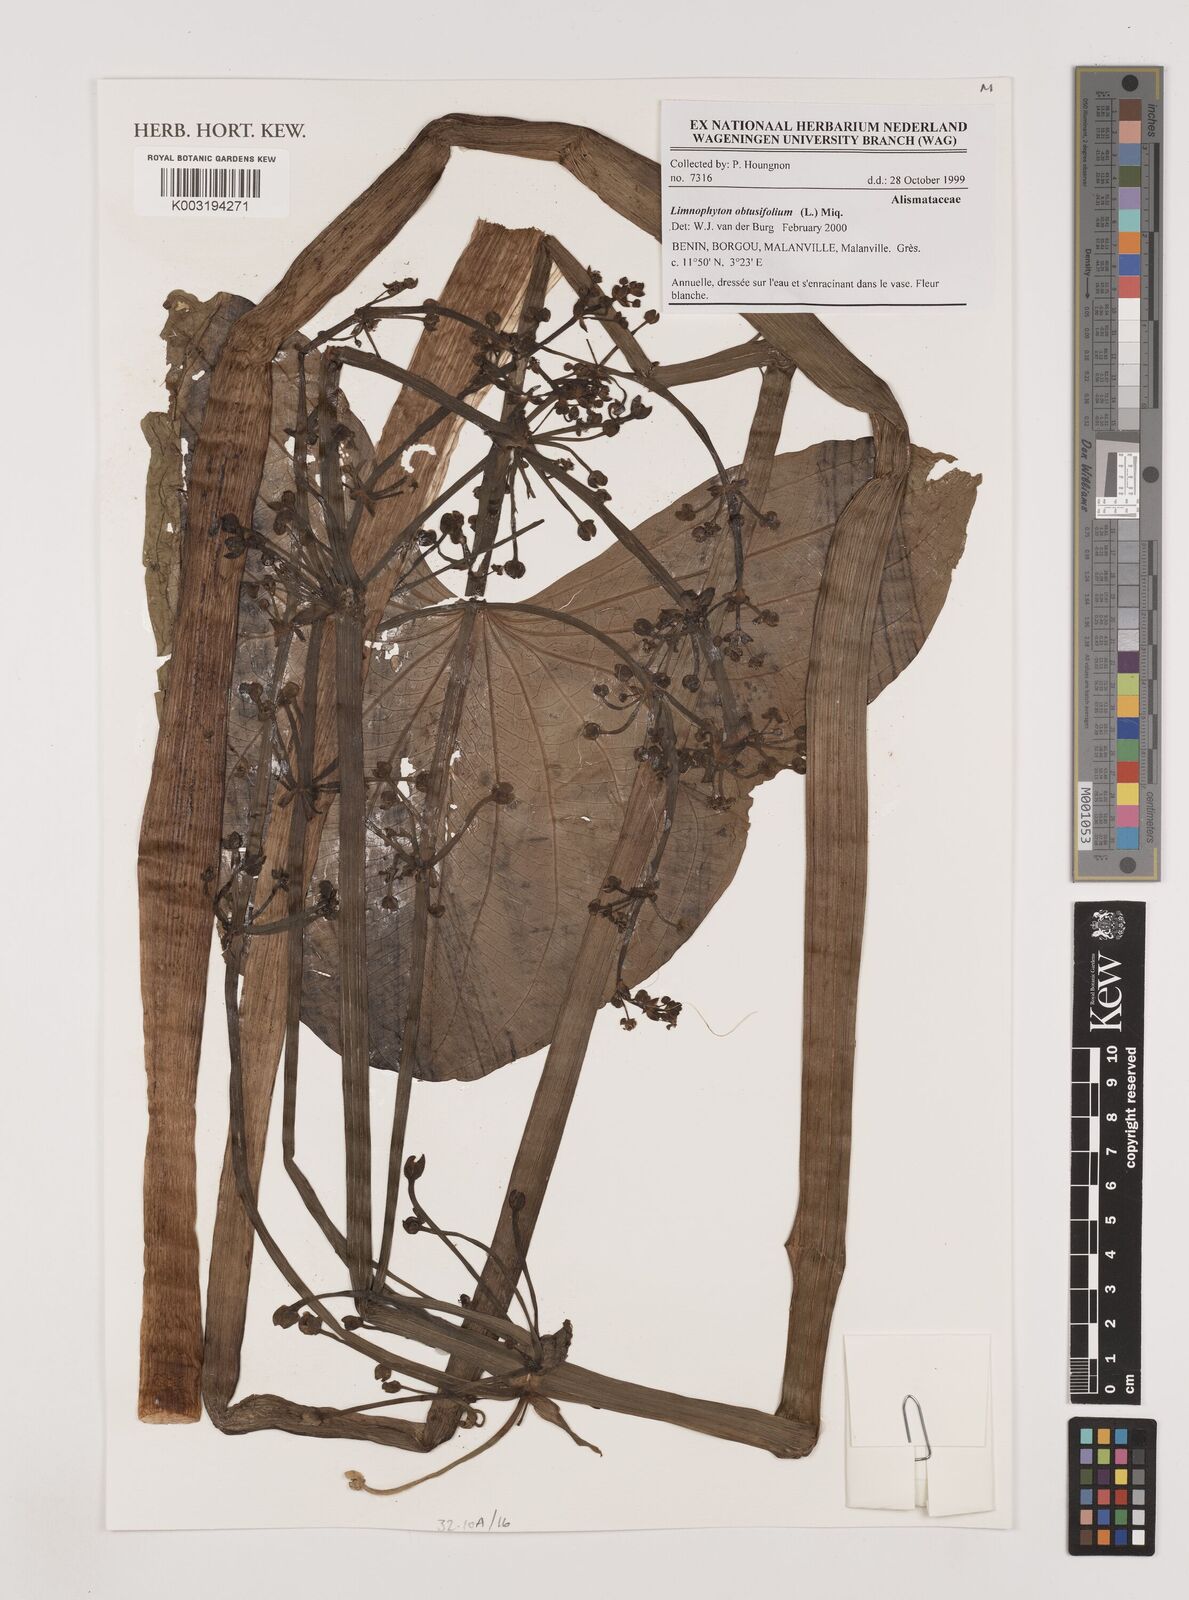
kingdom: Plantae
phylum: Tracheophyta
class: Liliopsida
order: Alismatales
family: Alismataceae
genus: Limnophyton
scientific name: Limnophyton obtusifolium
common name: Arrow head
